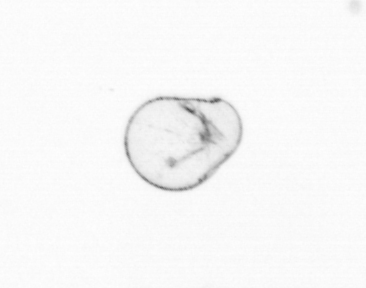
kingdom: Chromista
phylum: Myzozoa
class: Dinophyceae
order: Noctilucales
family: Noctilucaceae
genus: Noctiluca
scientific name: Noctiluca scintillans
